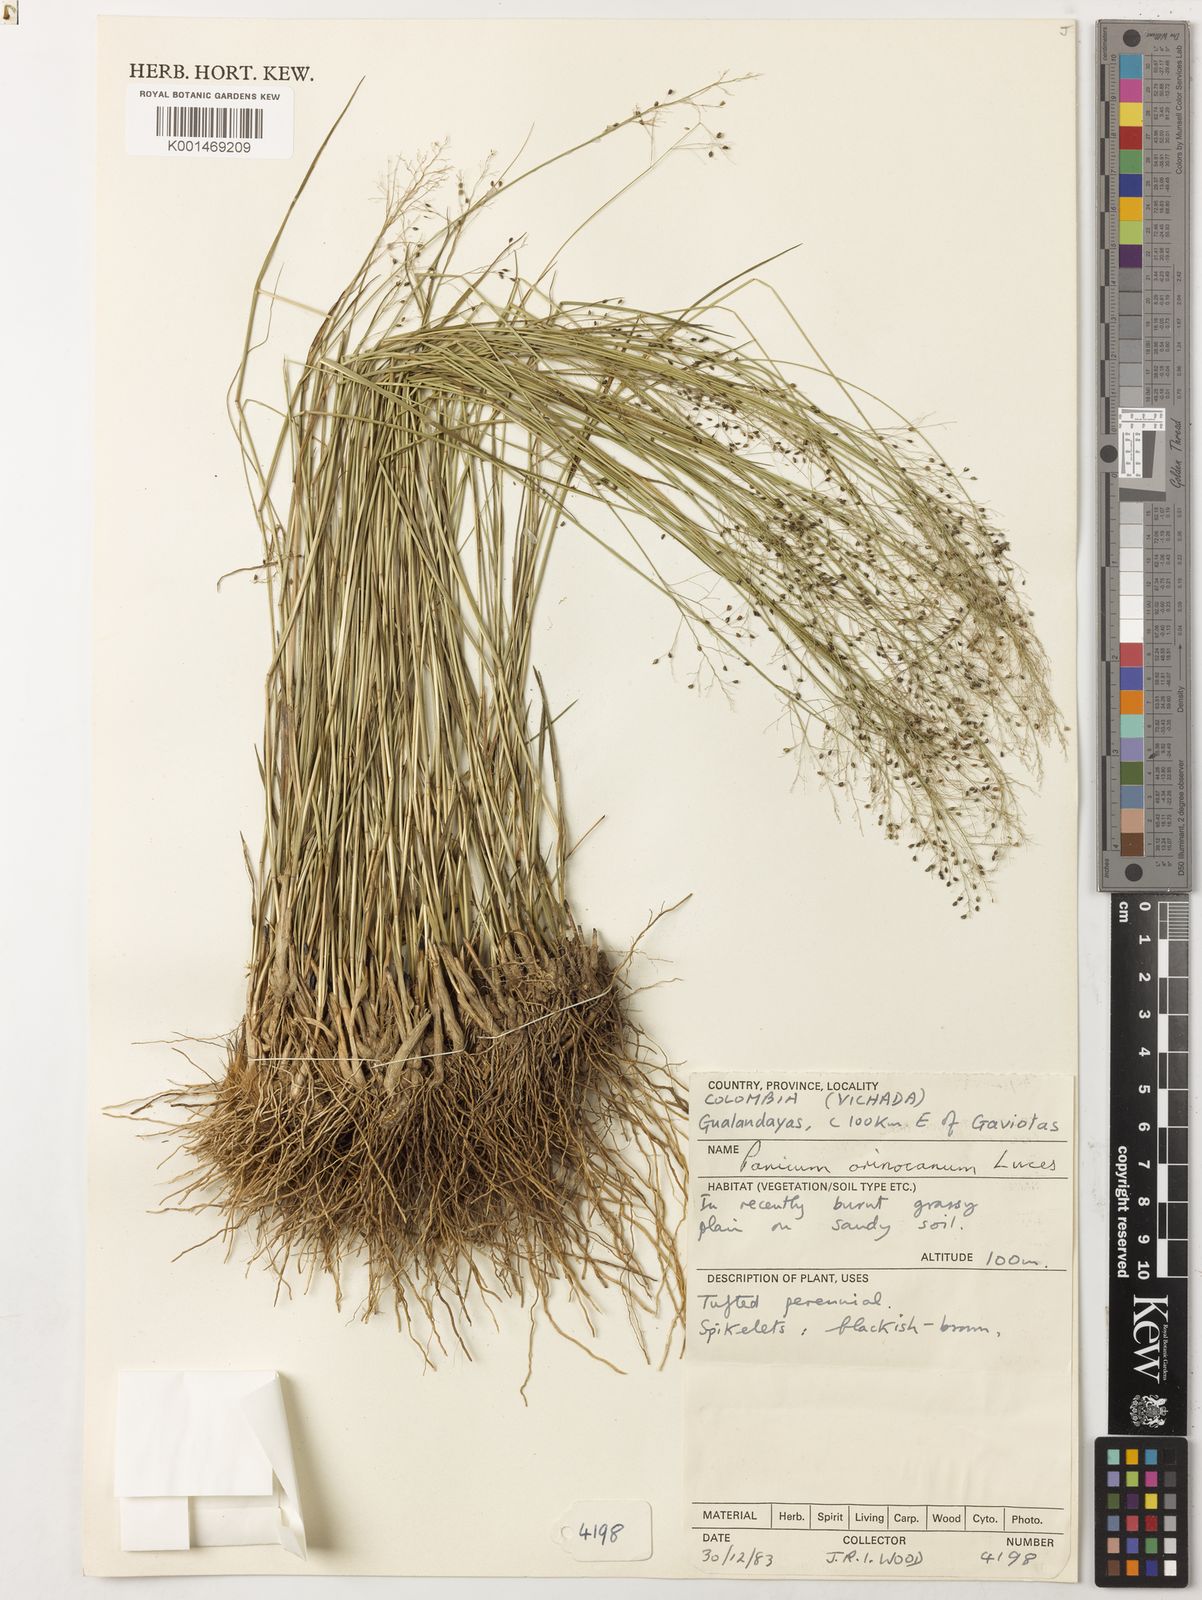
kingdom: Plantae
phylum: Tracheophyta
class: Liliopsida
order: Poales
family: Poaceae
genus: Trichanthecium
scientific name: Trichanthecium orinocanum
